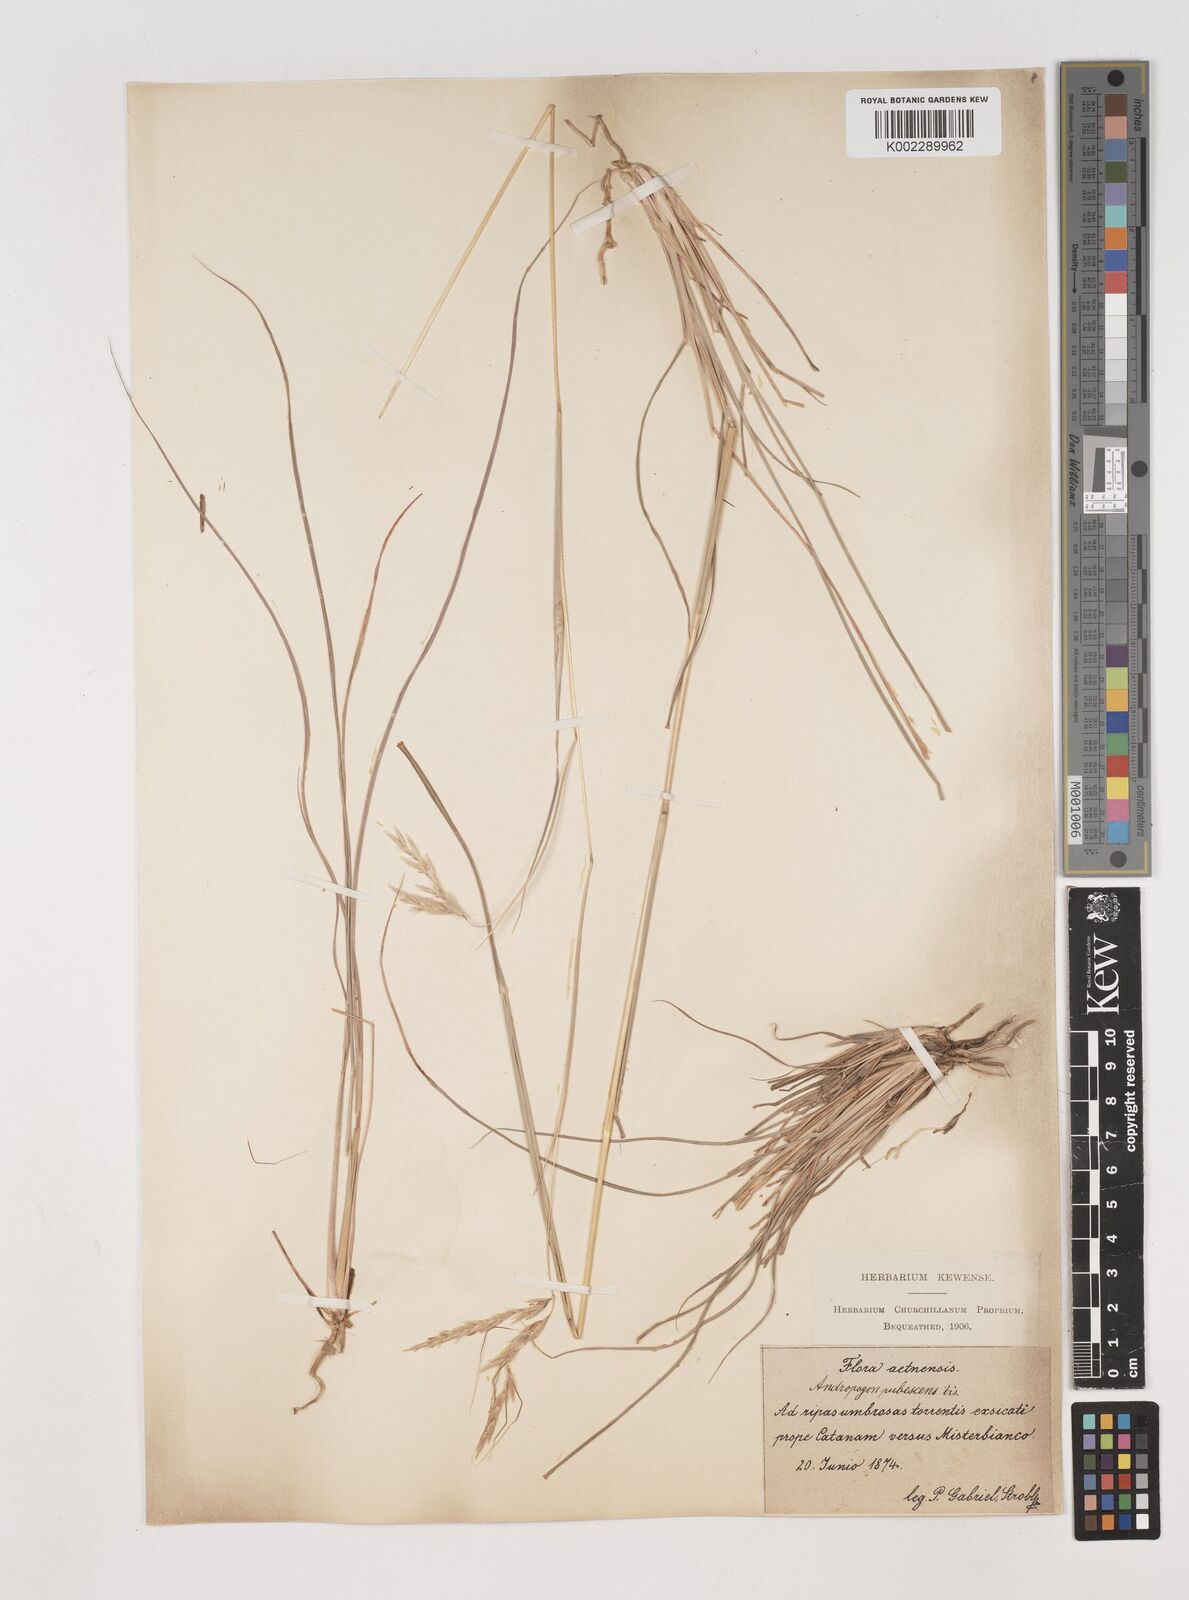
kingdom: Plantae
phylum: Tracheophyta
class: Liliopsida
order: Poales
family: Poaceae
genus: Hyparrhenia
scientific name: Hyparrhenia hirta
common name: Thatching grass
